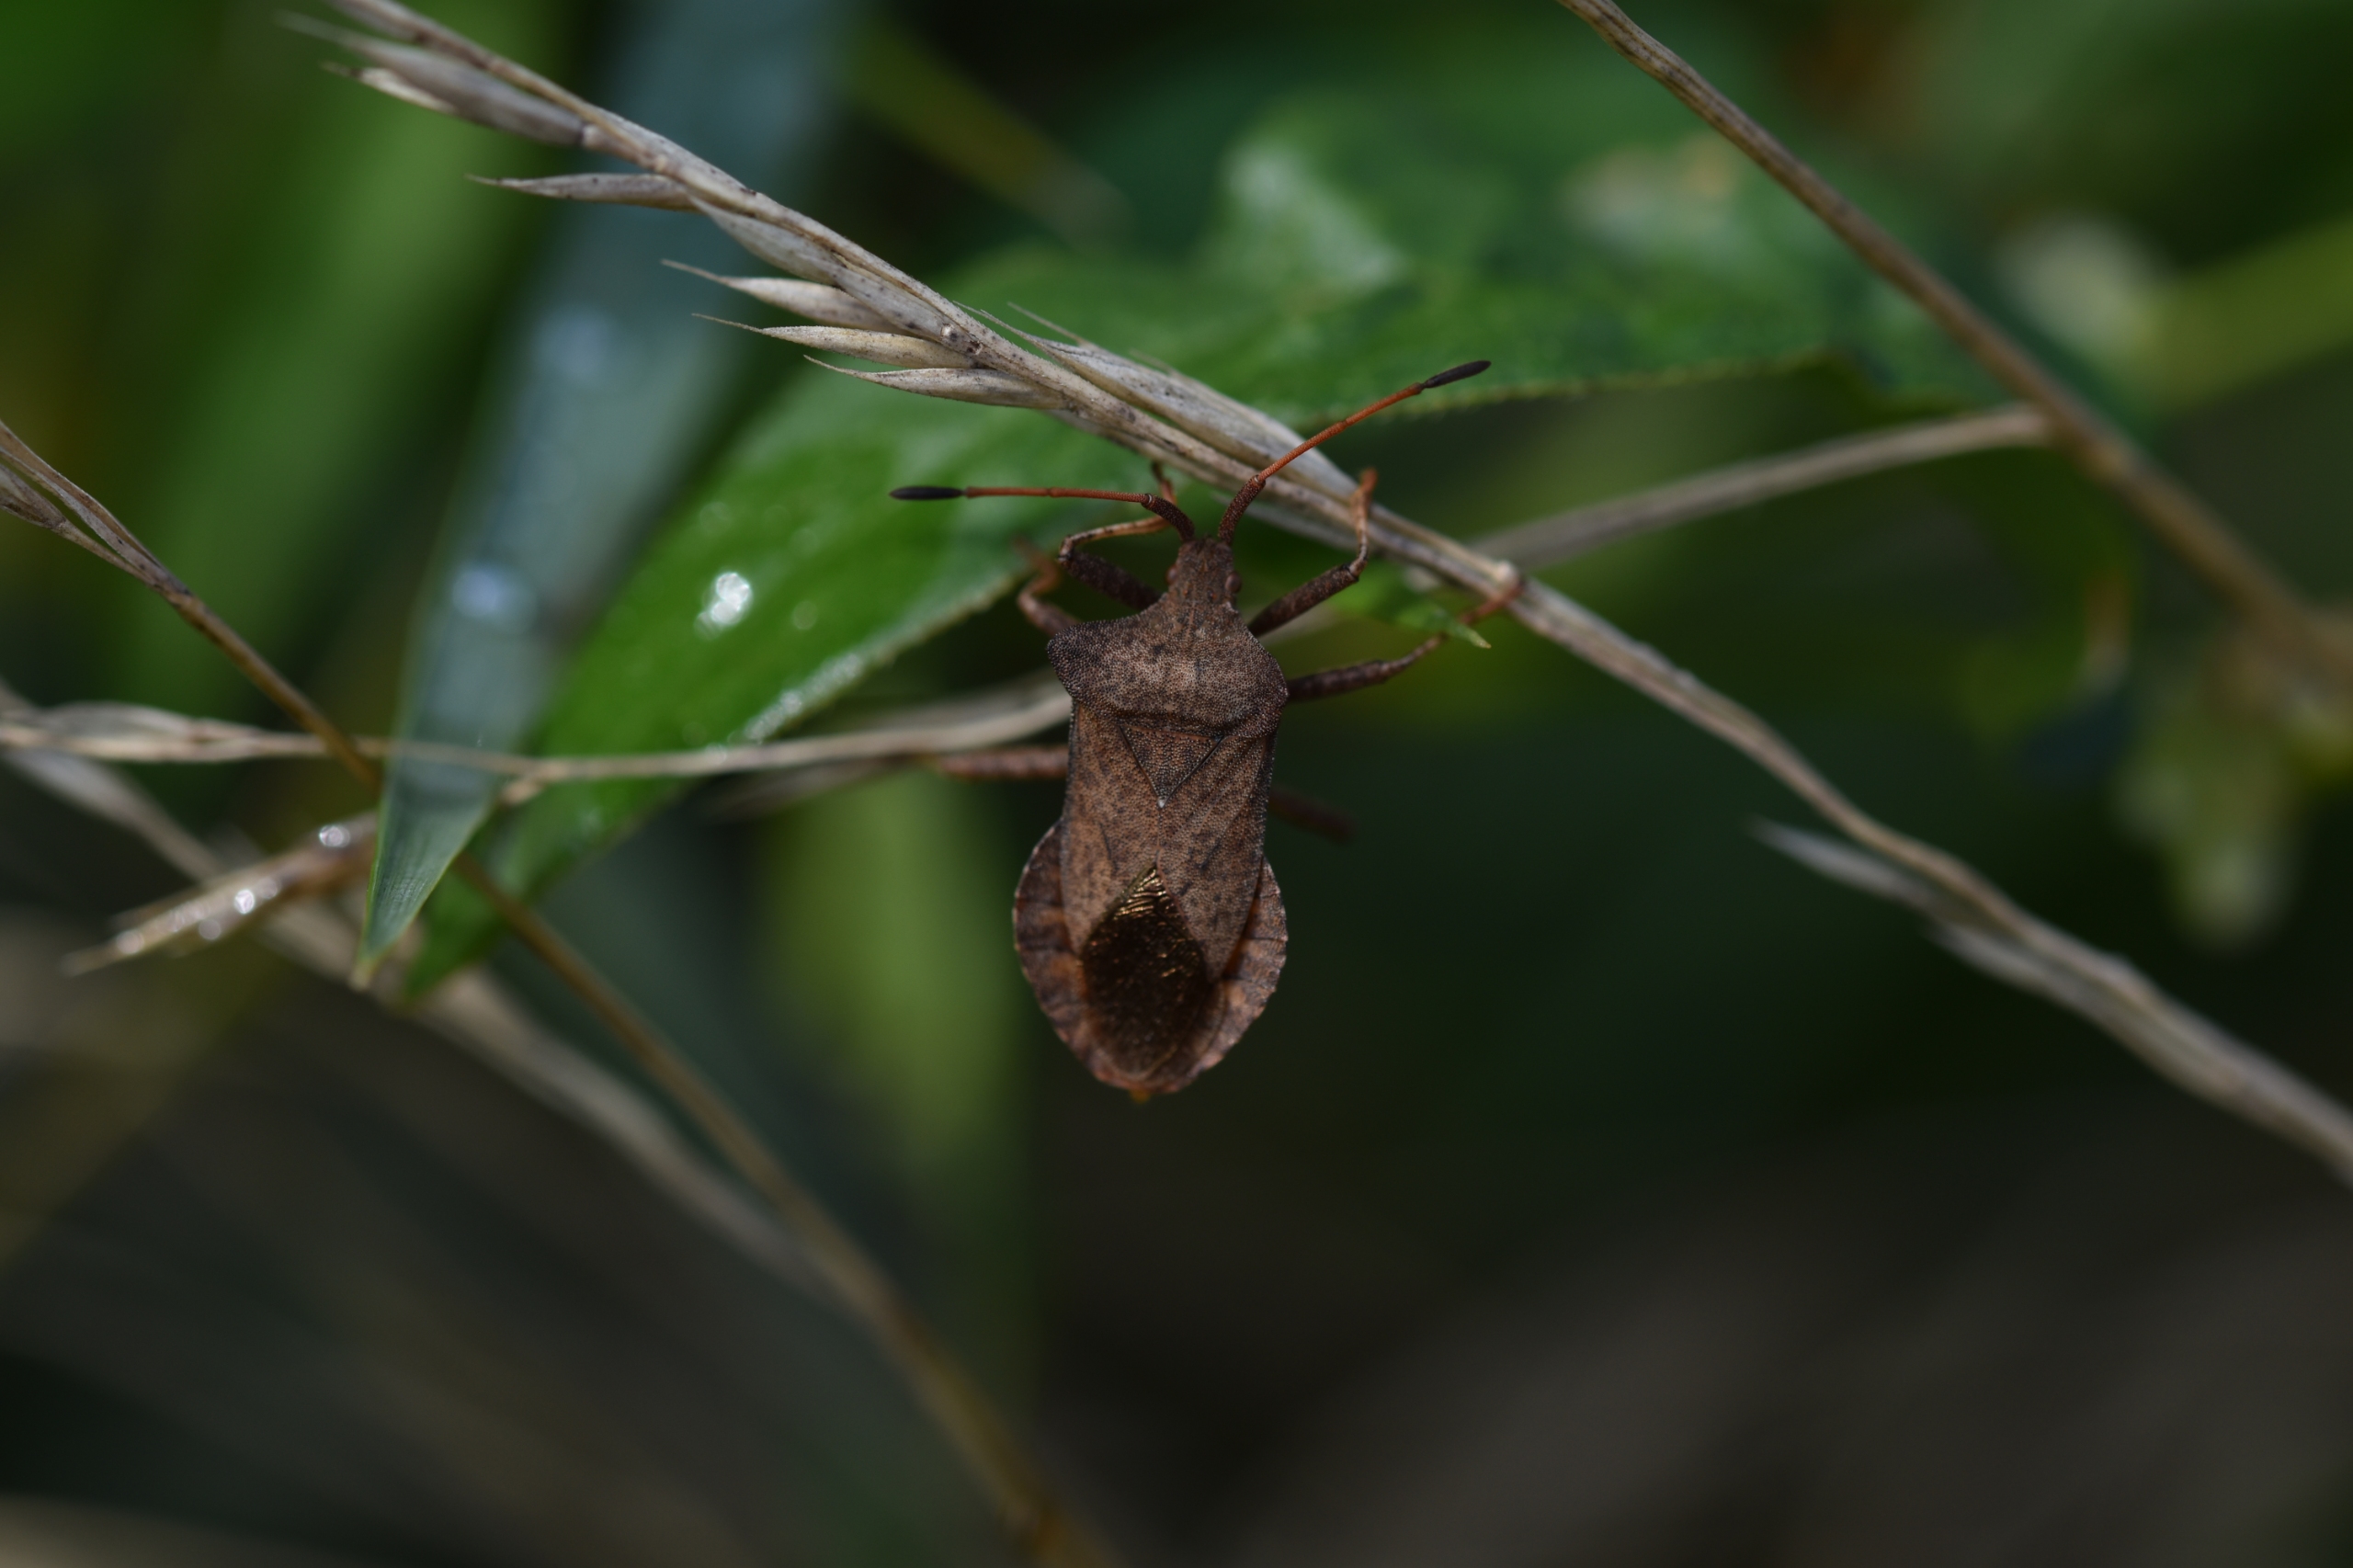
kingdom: Animalia
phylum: Arthropoda
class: Insecta
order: Hemiptera
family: Coreidae
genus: Coreus
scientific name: Coreus marginatus
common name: Skræppetæge
